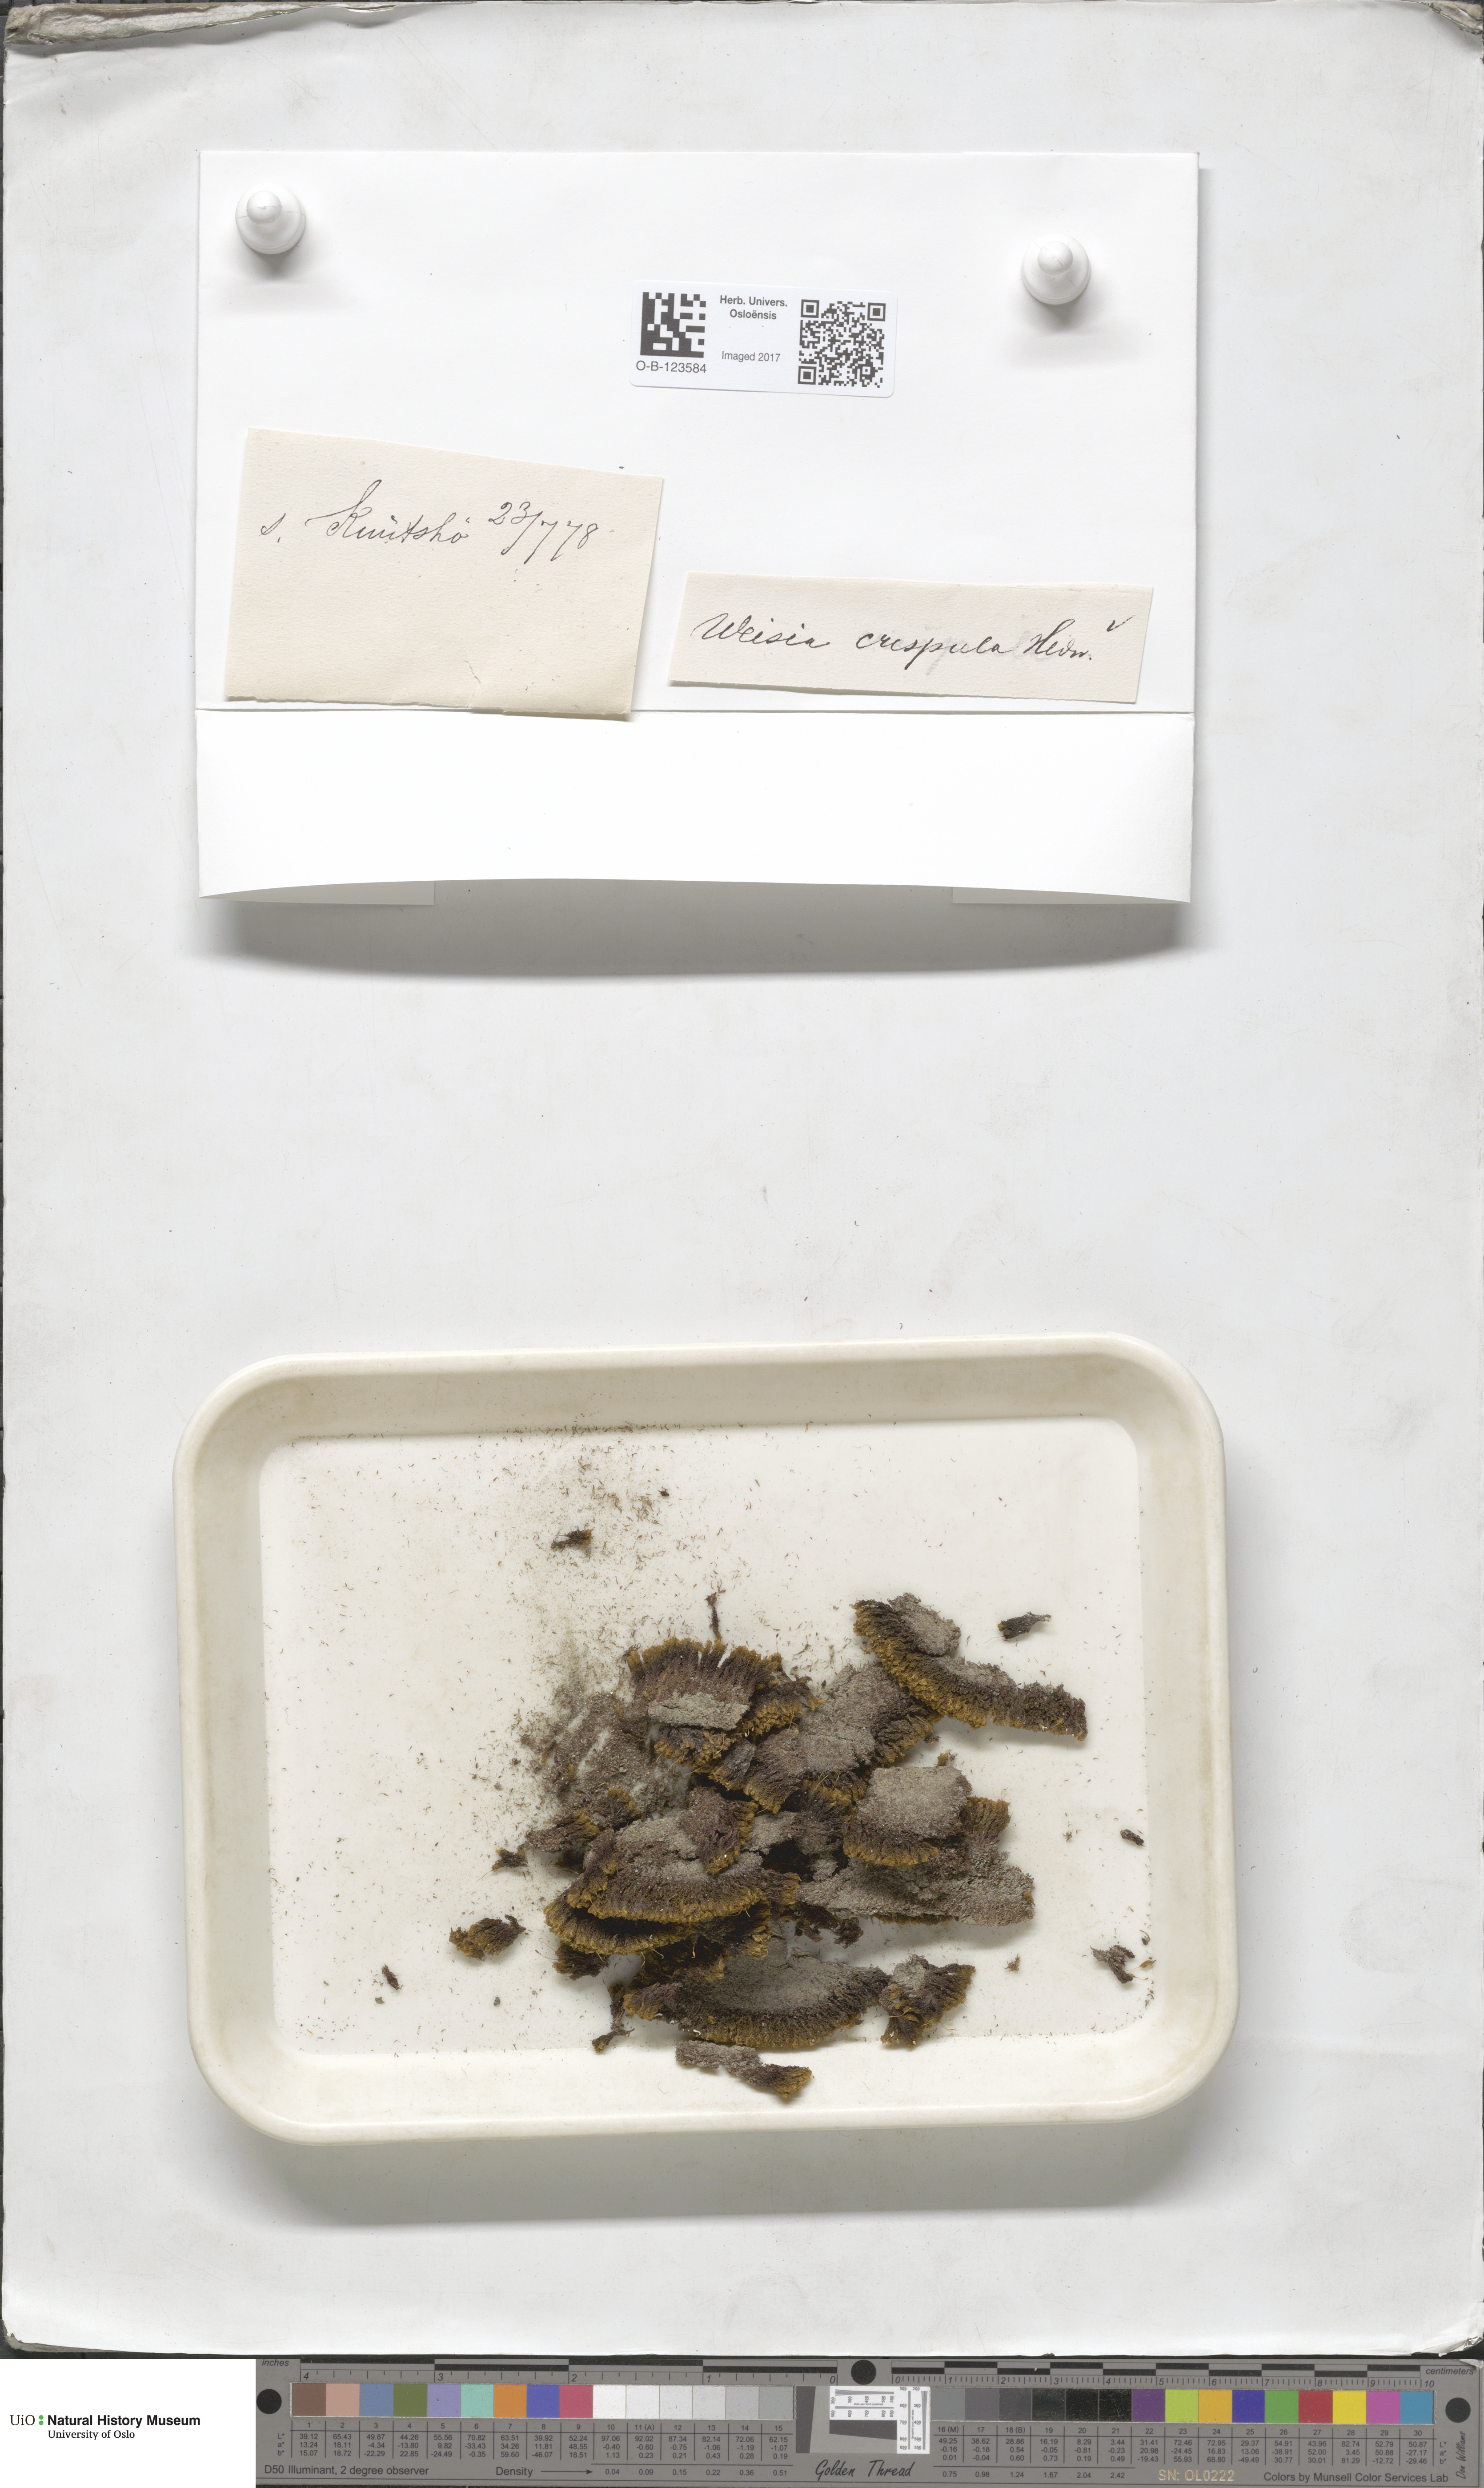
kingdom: Plantae
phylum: Bryophyta
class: Bryopsida
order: Scouleriales
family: Hymenolomataceae
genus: Hymenoloma
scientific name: Hymenoloma crispulum
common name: Mountain pincushion
